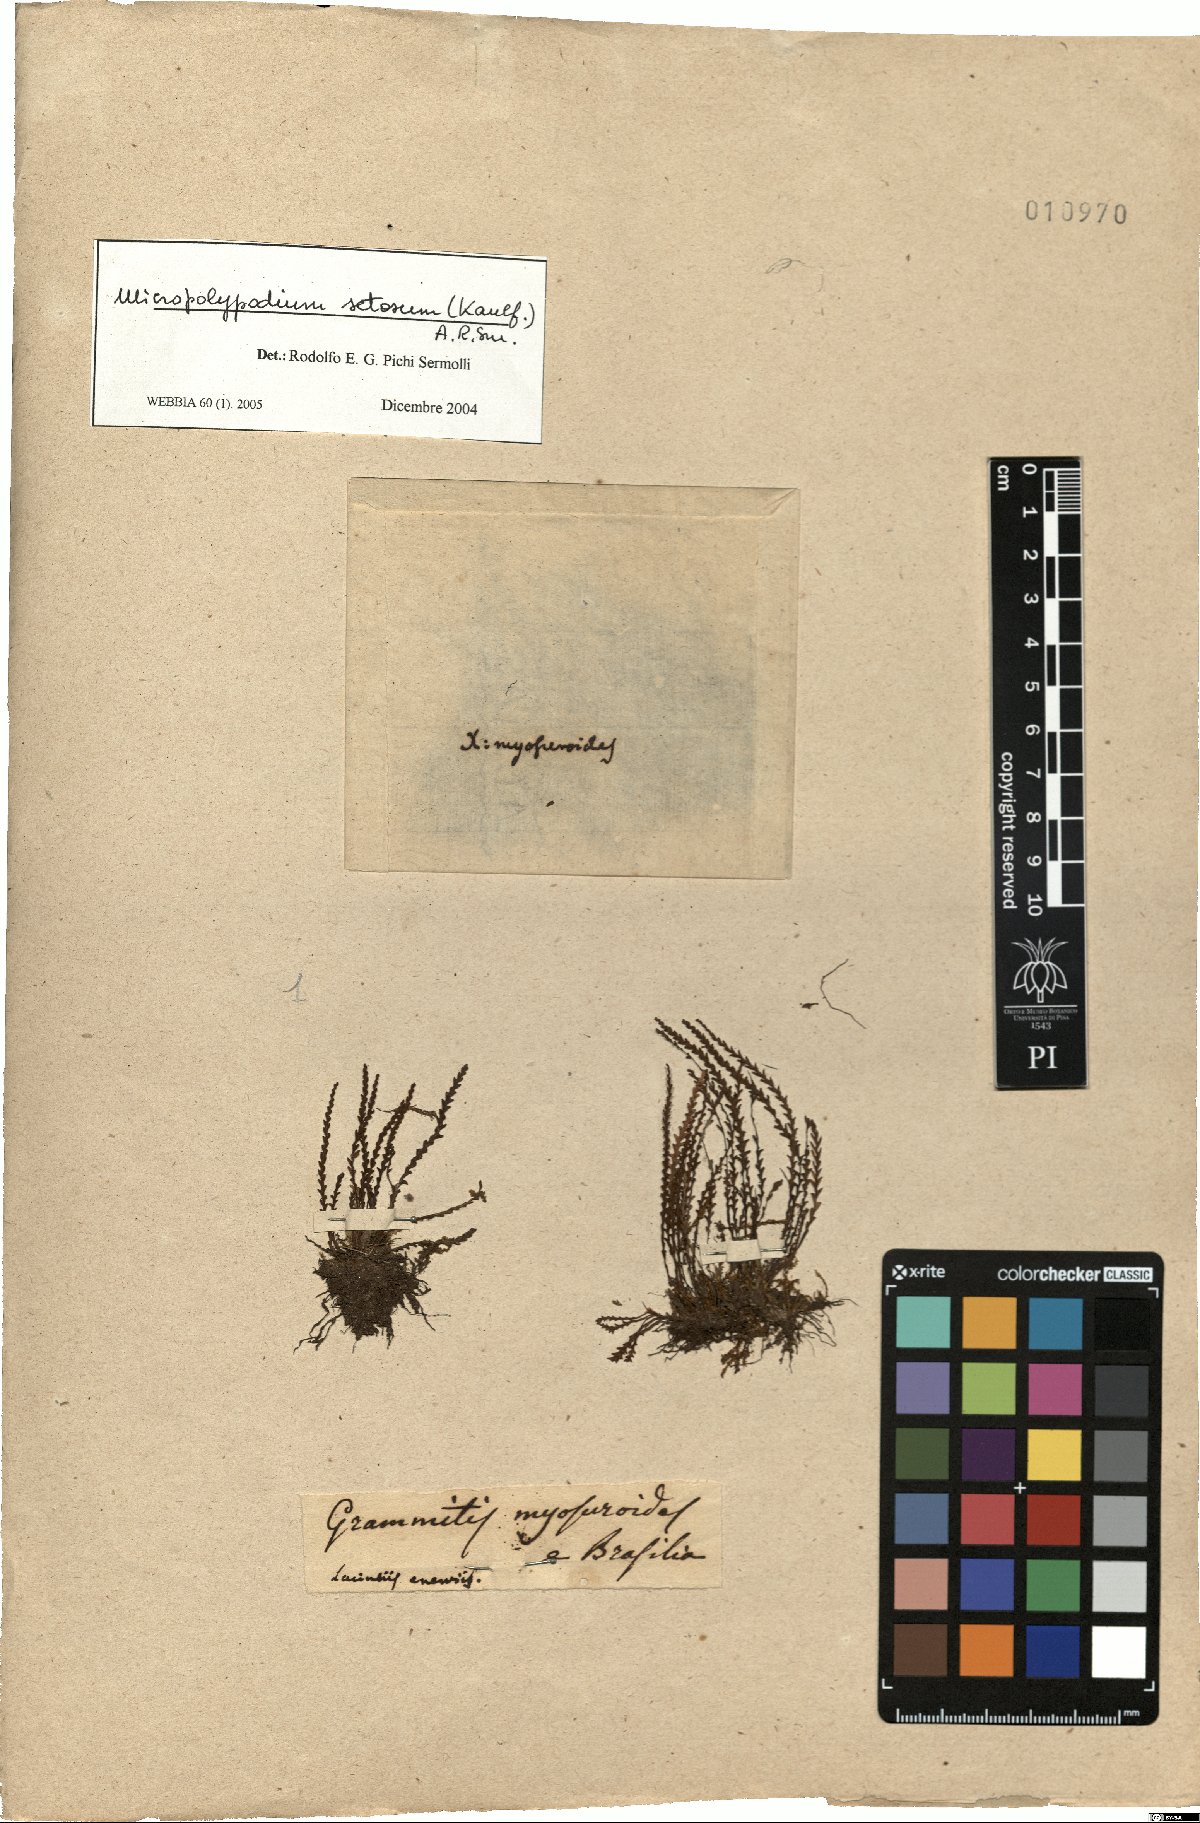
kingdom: Plantae
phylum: Tracheophyta
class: Polypodiopsida
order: Polypodiales
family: Polypodiaceae
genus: Moranopteris
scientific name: Moranopteris setosa
